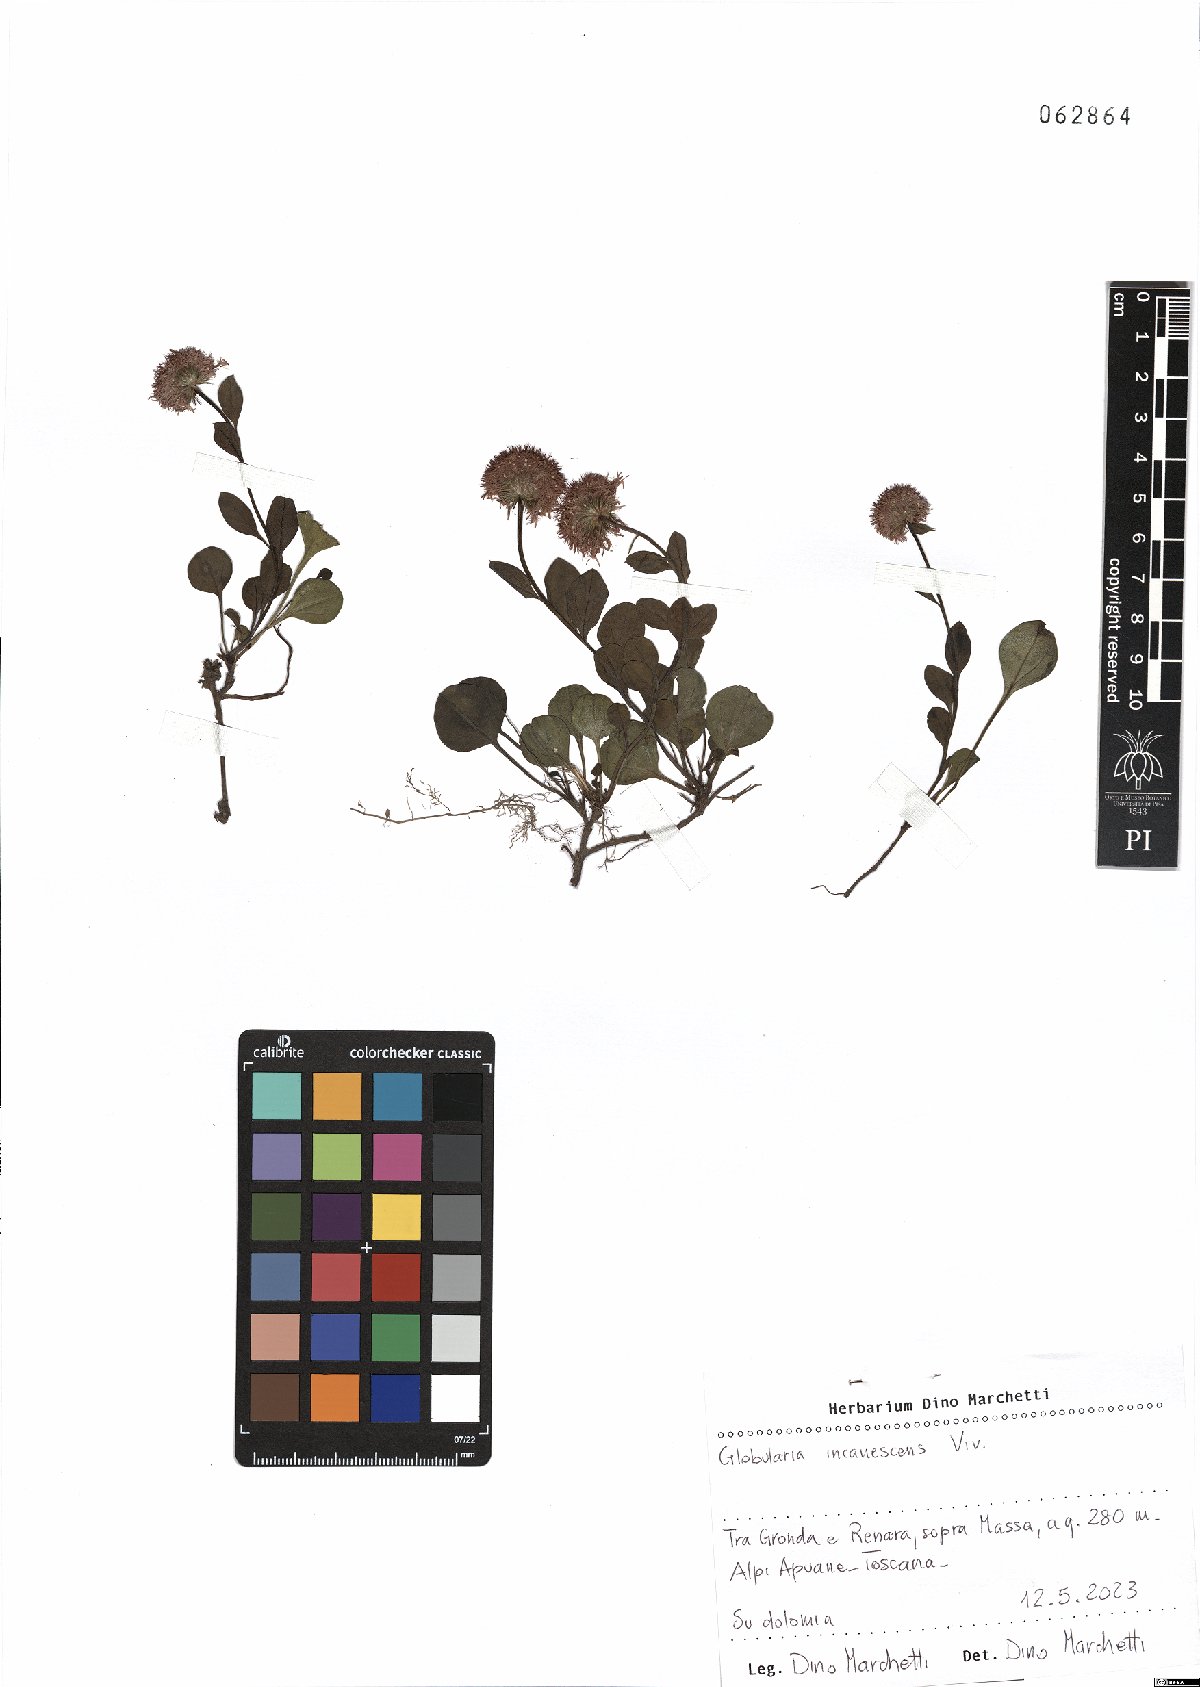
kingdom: Plantae
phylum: Tracheophyta
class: Magnoliopsida
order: Lamiales
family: Plantaginaceae
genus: Globularia
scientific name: Globularia incanescens
